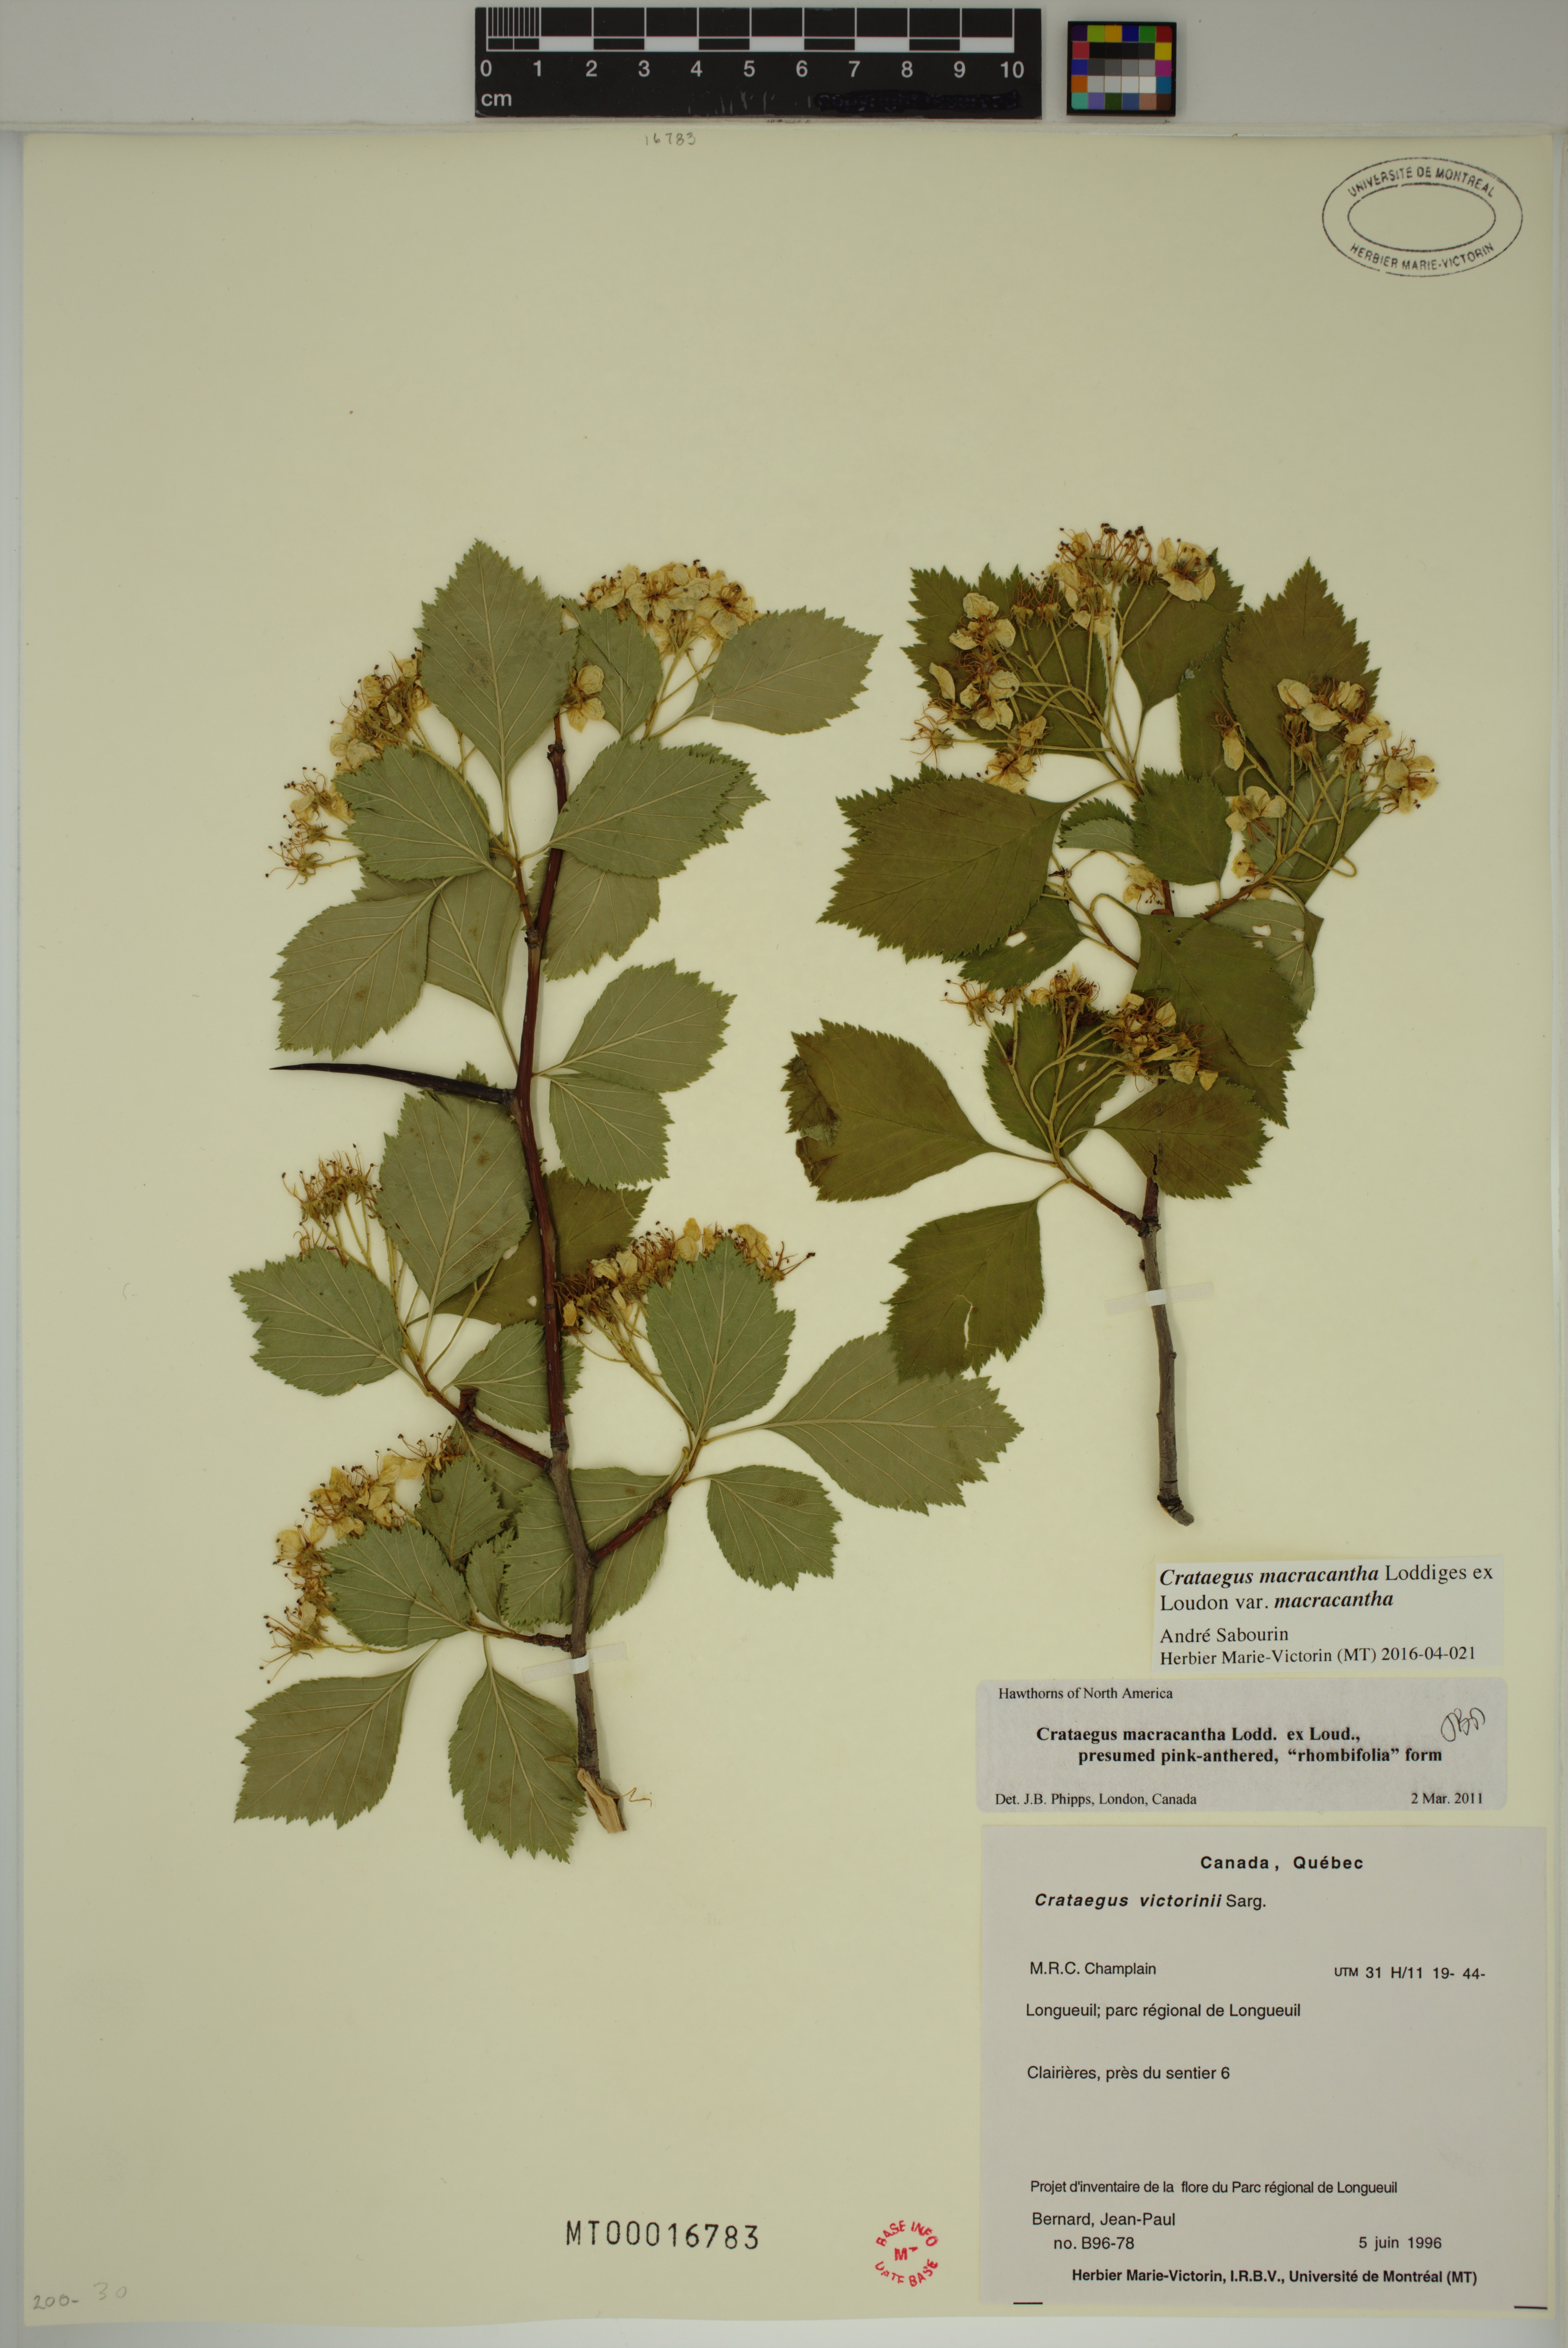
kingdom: Plantae
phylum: Tracheophyta
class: Magnoliopsida
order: Rosales
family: Rosaceae
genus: Crataegus
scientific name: Crataegus macracantha
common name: Large-thorn hawthorn
